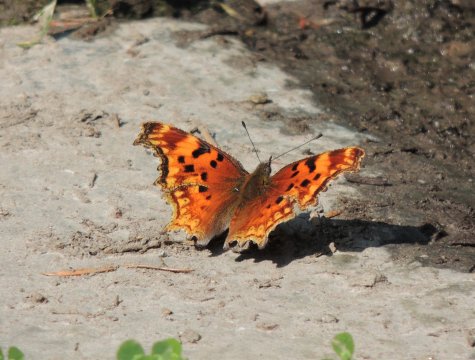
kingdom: Animalia
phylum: Arthropoda
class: Insecta
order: Lepidoptera
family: Nymphalidae
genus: Polygonia
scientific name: Polygonia gracilis
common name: Hoary Comma
